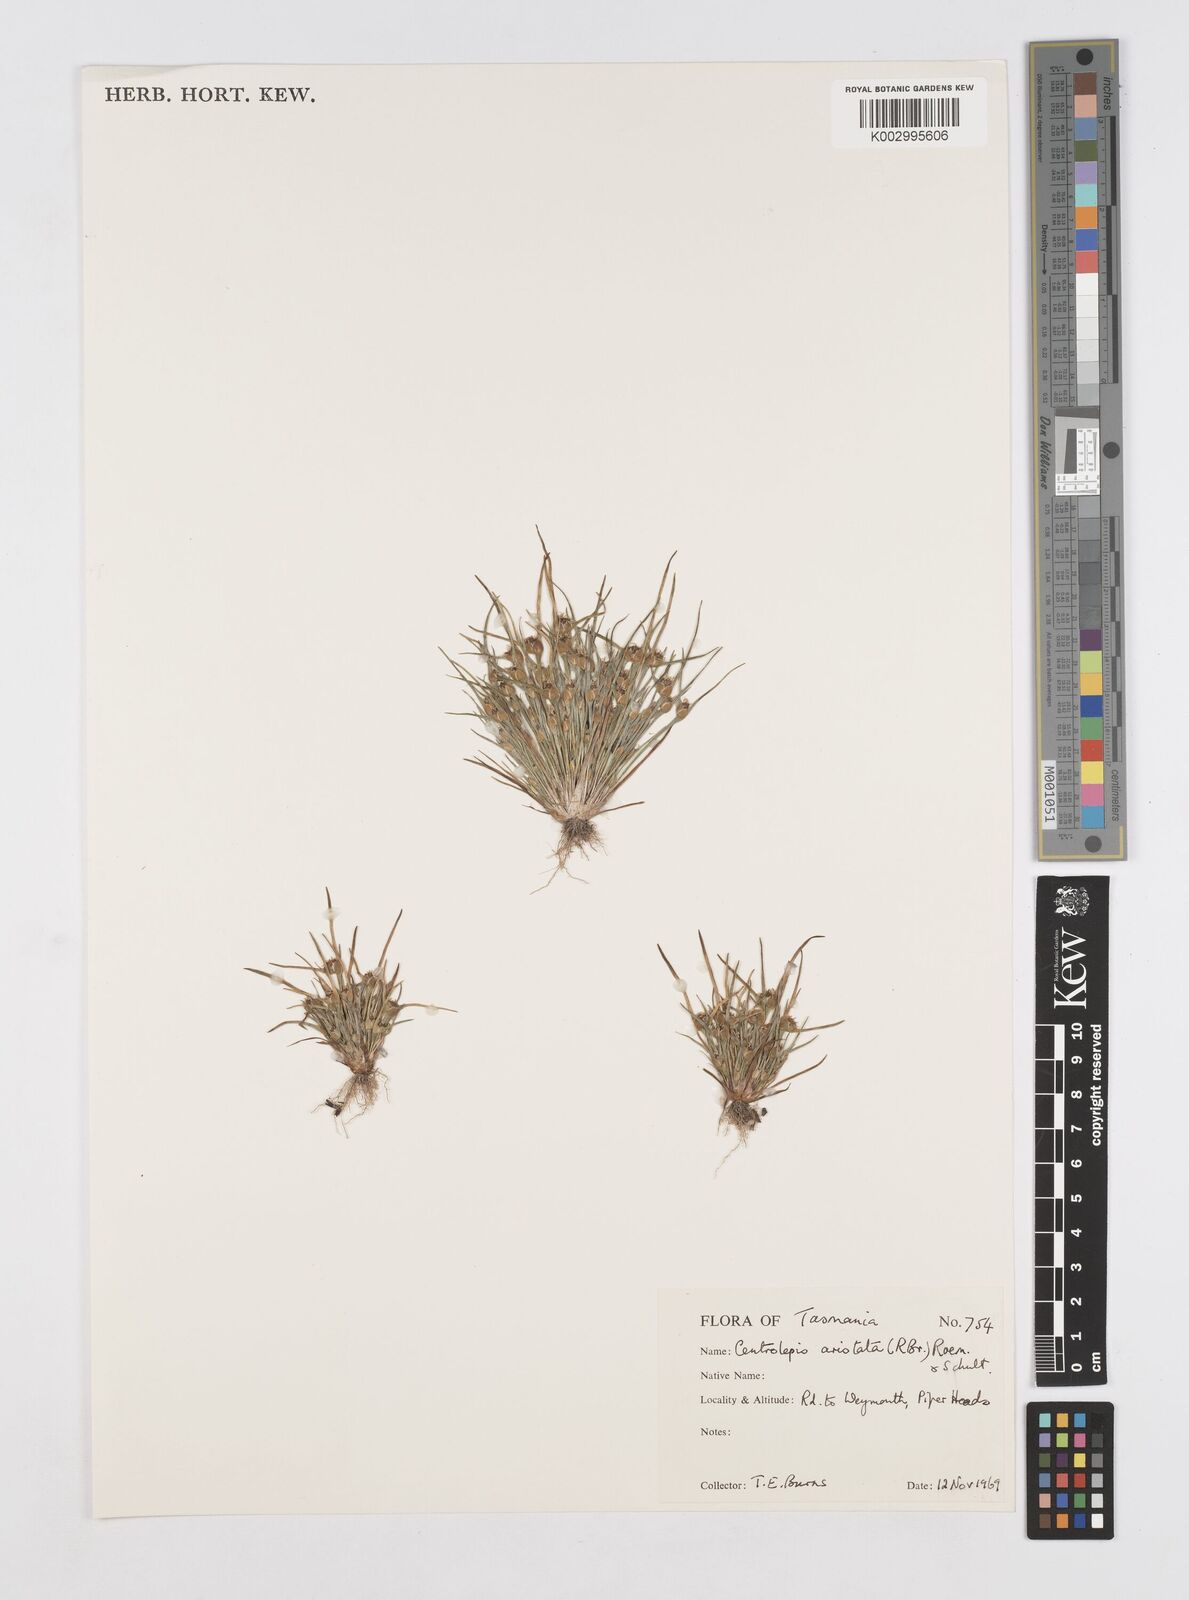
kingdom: Plantae
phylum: Tracheophyta
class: Liliopsida
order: Poales
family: Restionaceae
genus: Centrolepis
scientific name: Centrolepis aristata
